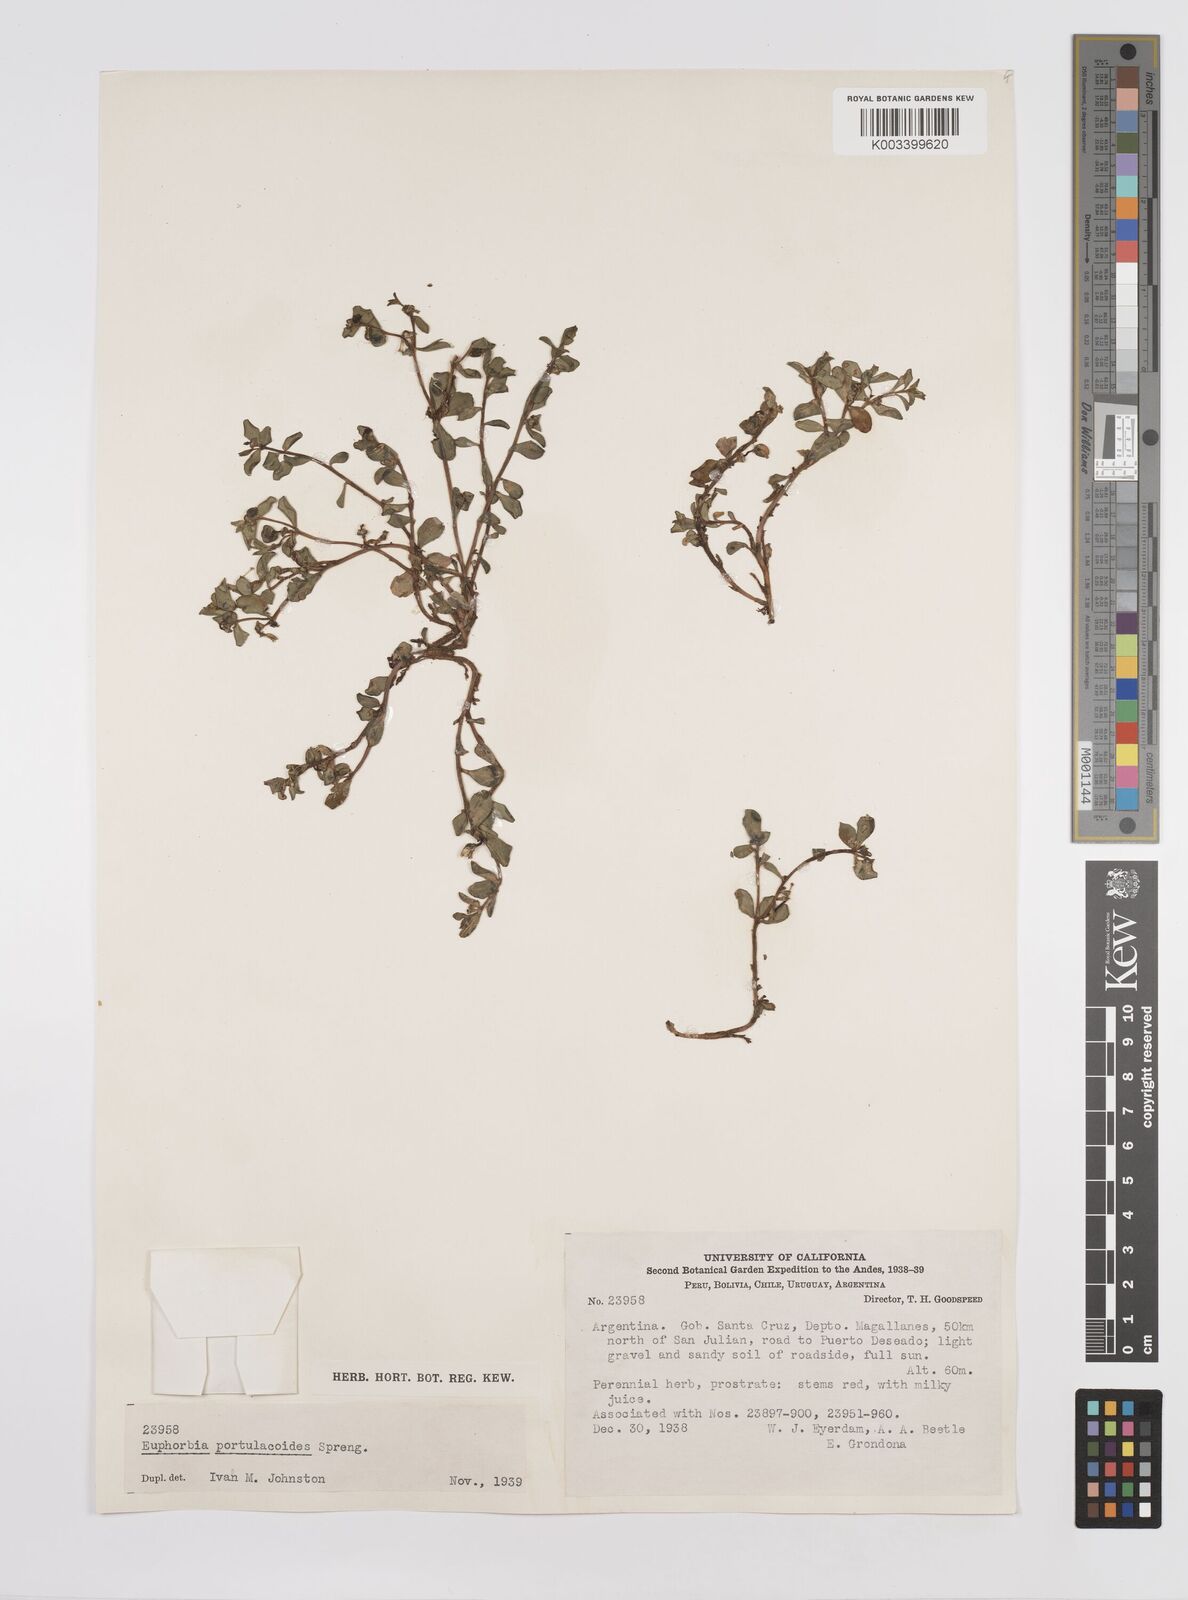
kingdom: Plantae
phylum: Tracheophyta
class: Magnoliopsida
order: Malpighiales
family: Euphorbiaceae
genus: Euphorbia
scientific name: Euphorbia portulacoides
